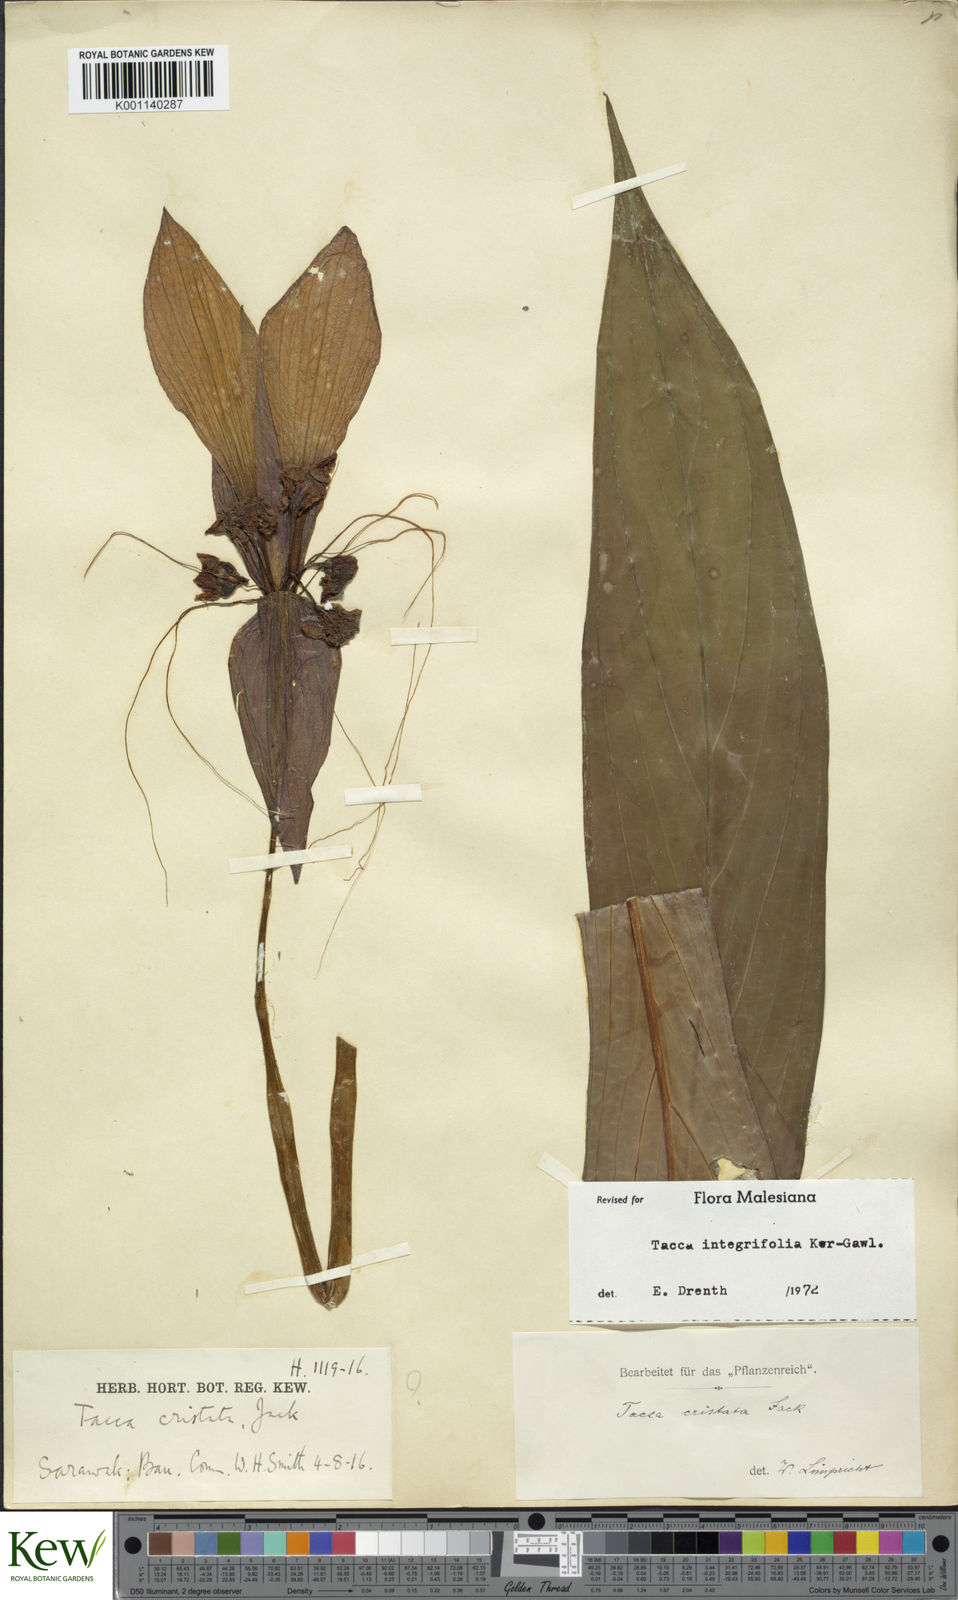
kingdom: Plantae
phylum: Tracheophyta
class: Liliopsida
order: Dioscoreales
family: Dioscoreaceae
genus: Tacca
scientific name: Tacca integrifolia
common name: Batplant
